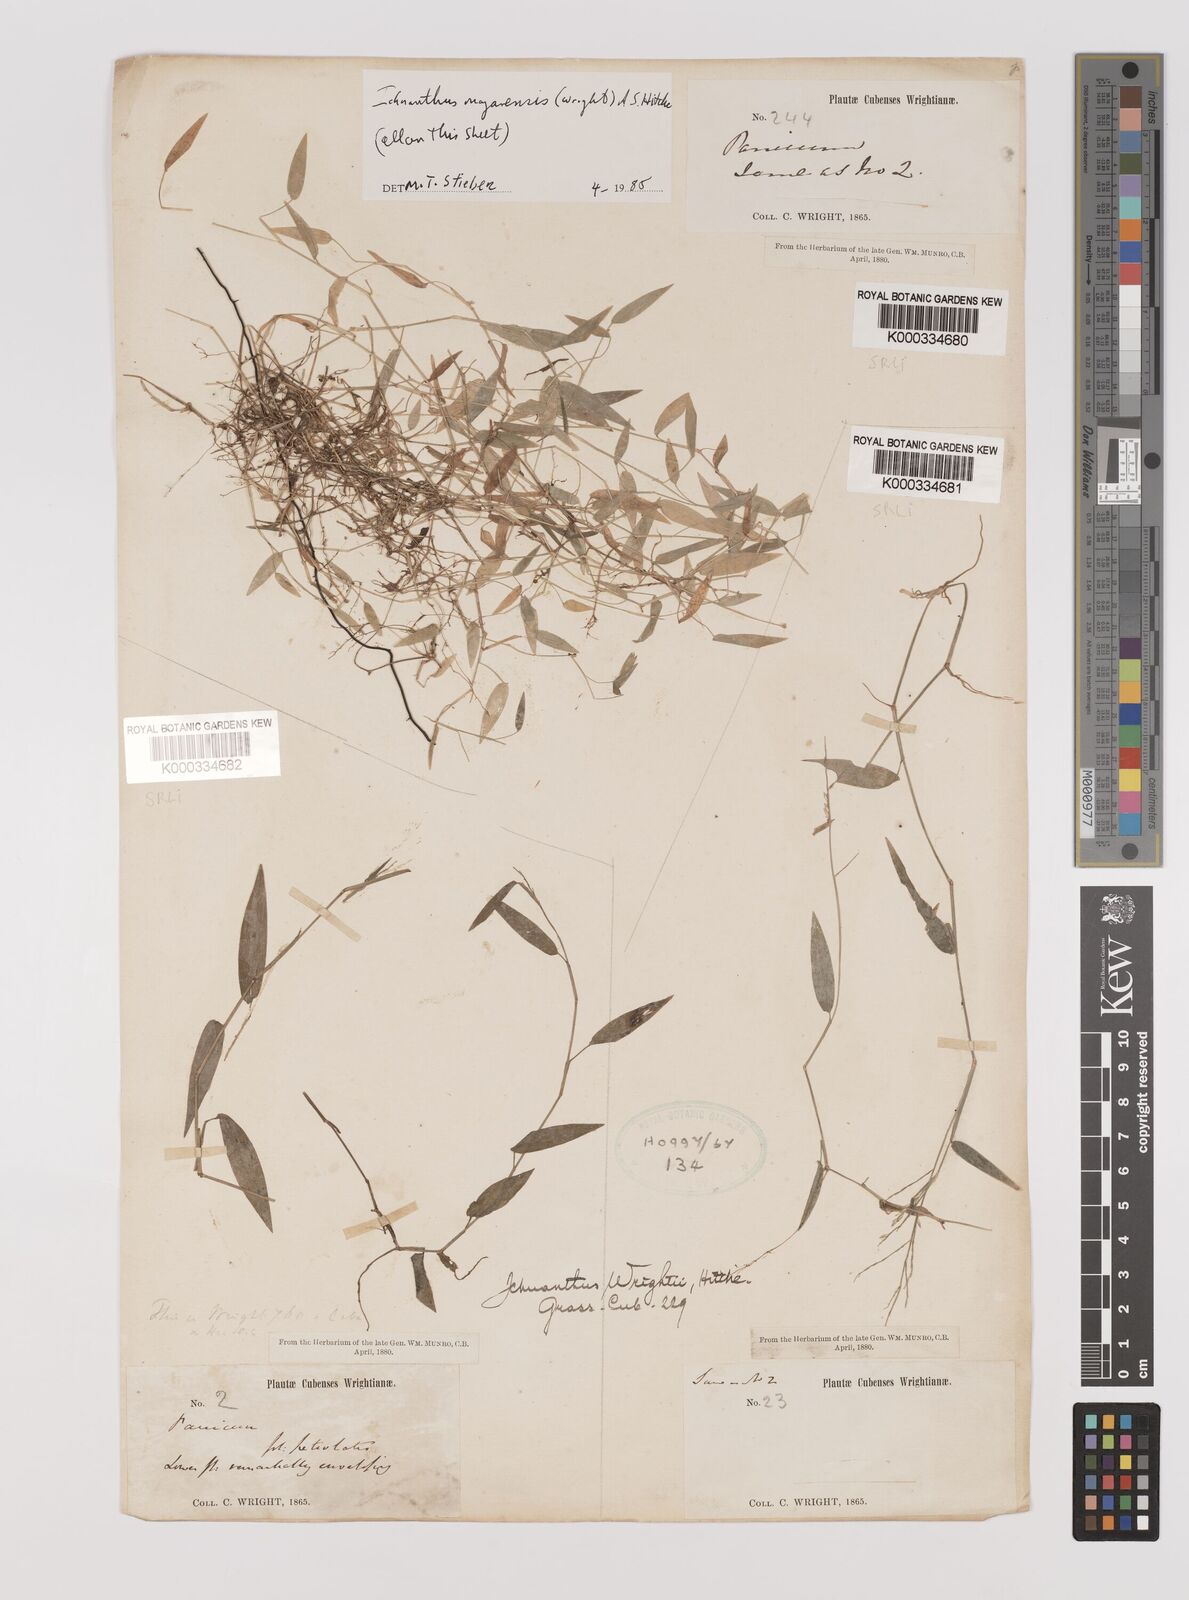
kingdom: Plantae
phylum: Tracheophyta
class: Liliopsida
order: Poales
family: Poaceae
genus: Oedochloa
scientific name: Oedochloa mayarensis
